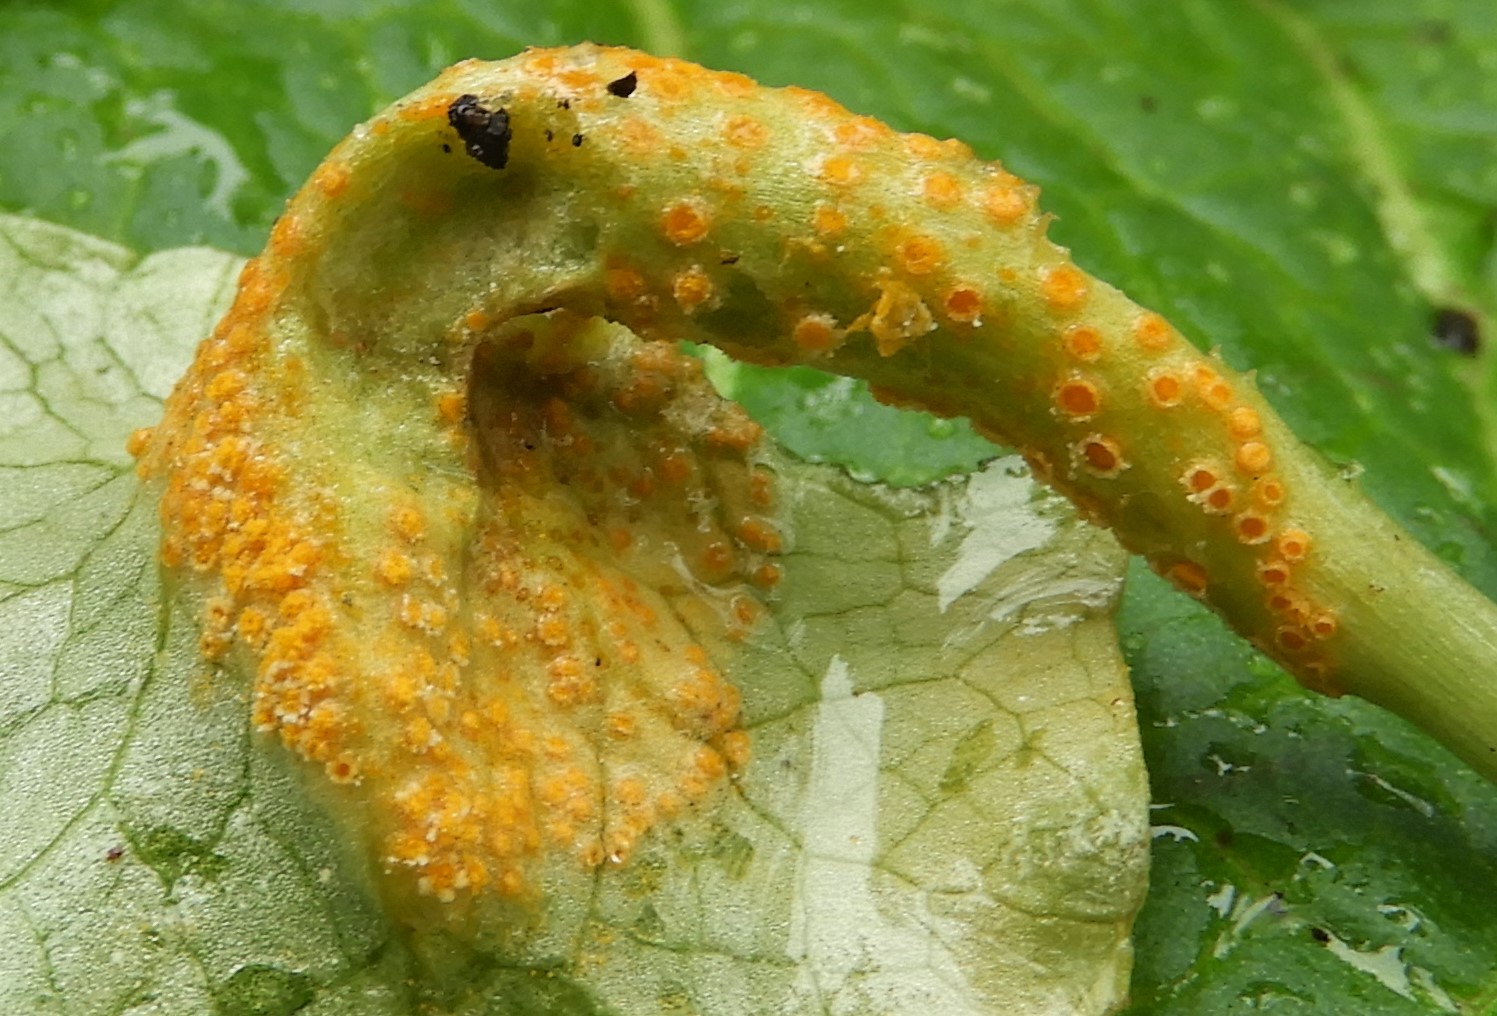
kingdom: Fungi
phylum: Basidiomycota
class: Pucciniomycetes
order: Pucciniales
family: Pucciniaceae
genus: Uromyces
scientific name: Uromyces dactylidis
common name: ranunkel-encellerust
